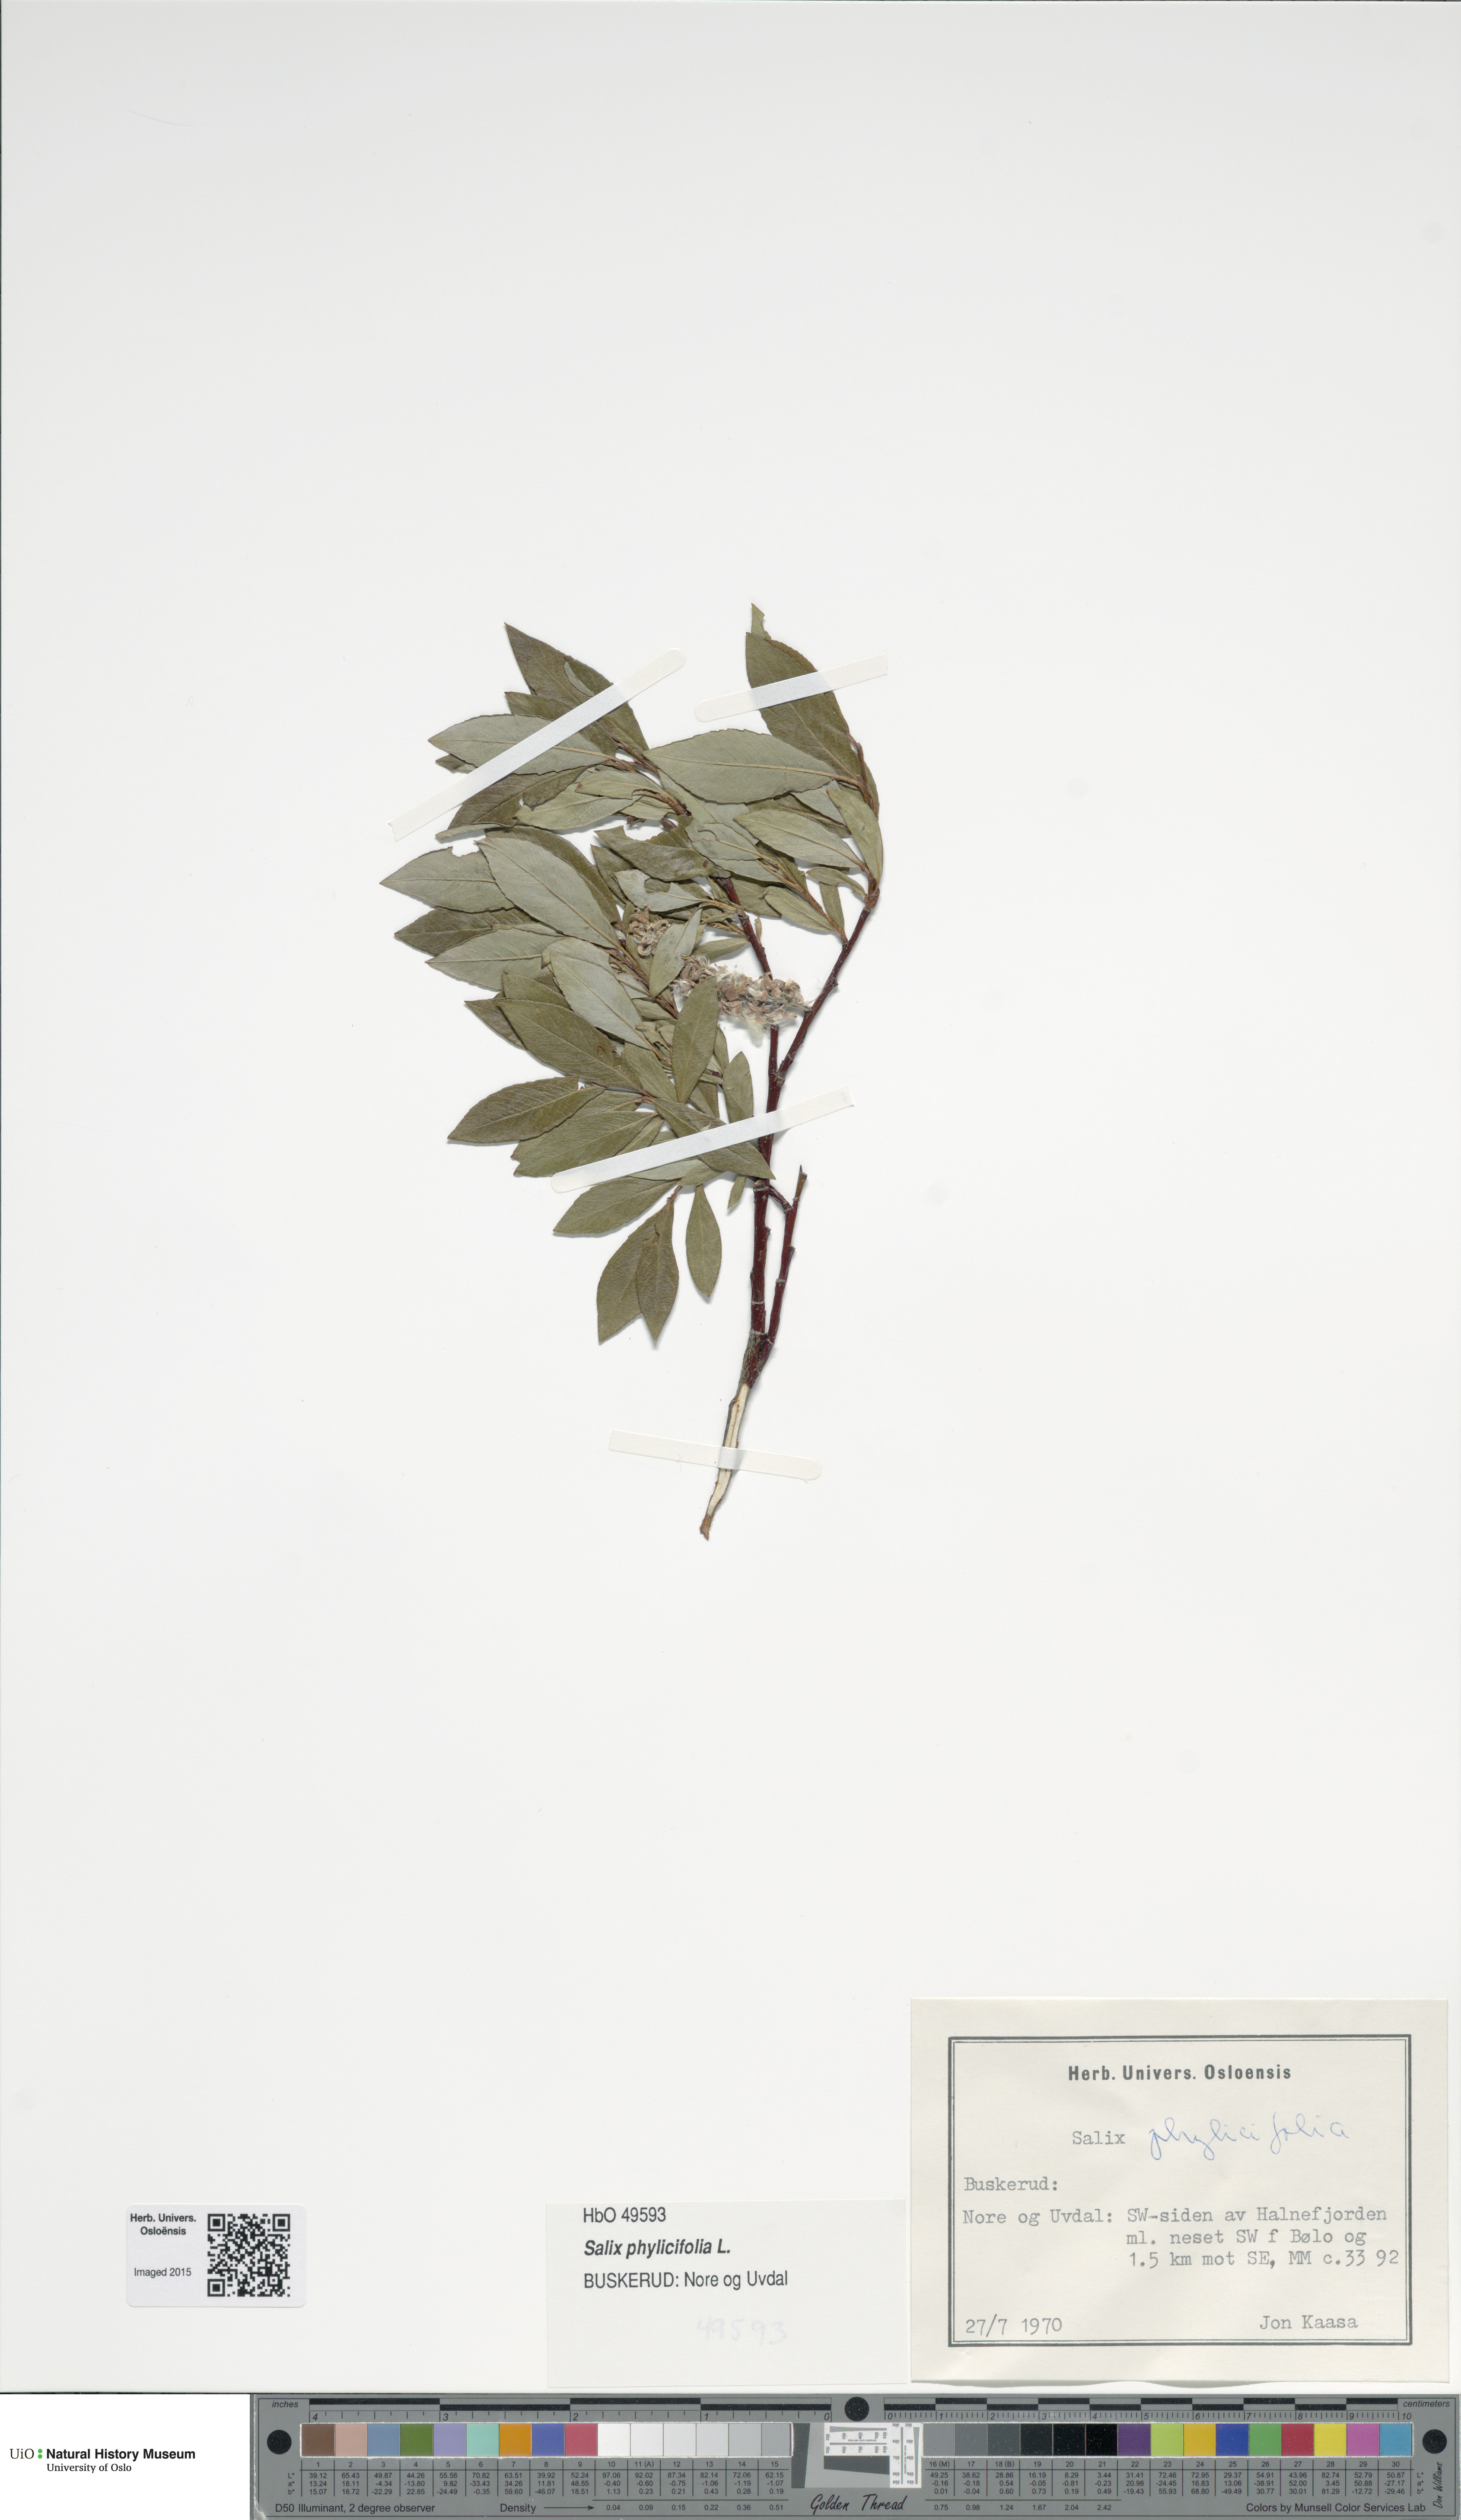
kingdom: Plantae
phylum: Tracheophyta
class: Magnoliopsida
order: Malpighiales
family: Salicaceae
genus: Salix
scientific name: Salix phylicifolia
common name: Tea-leaved willow
